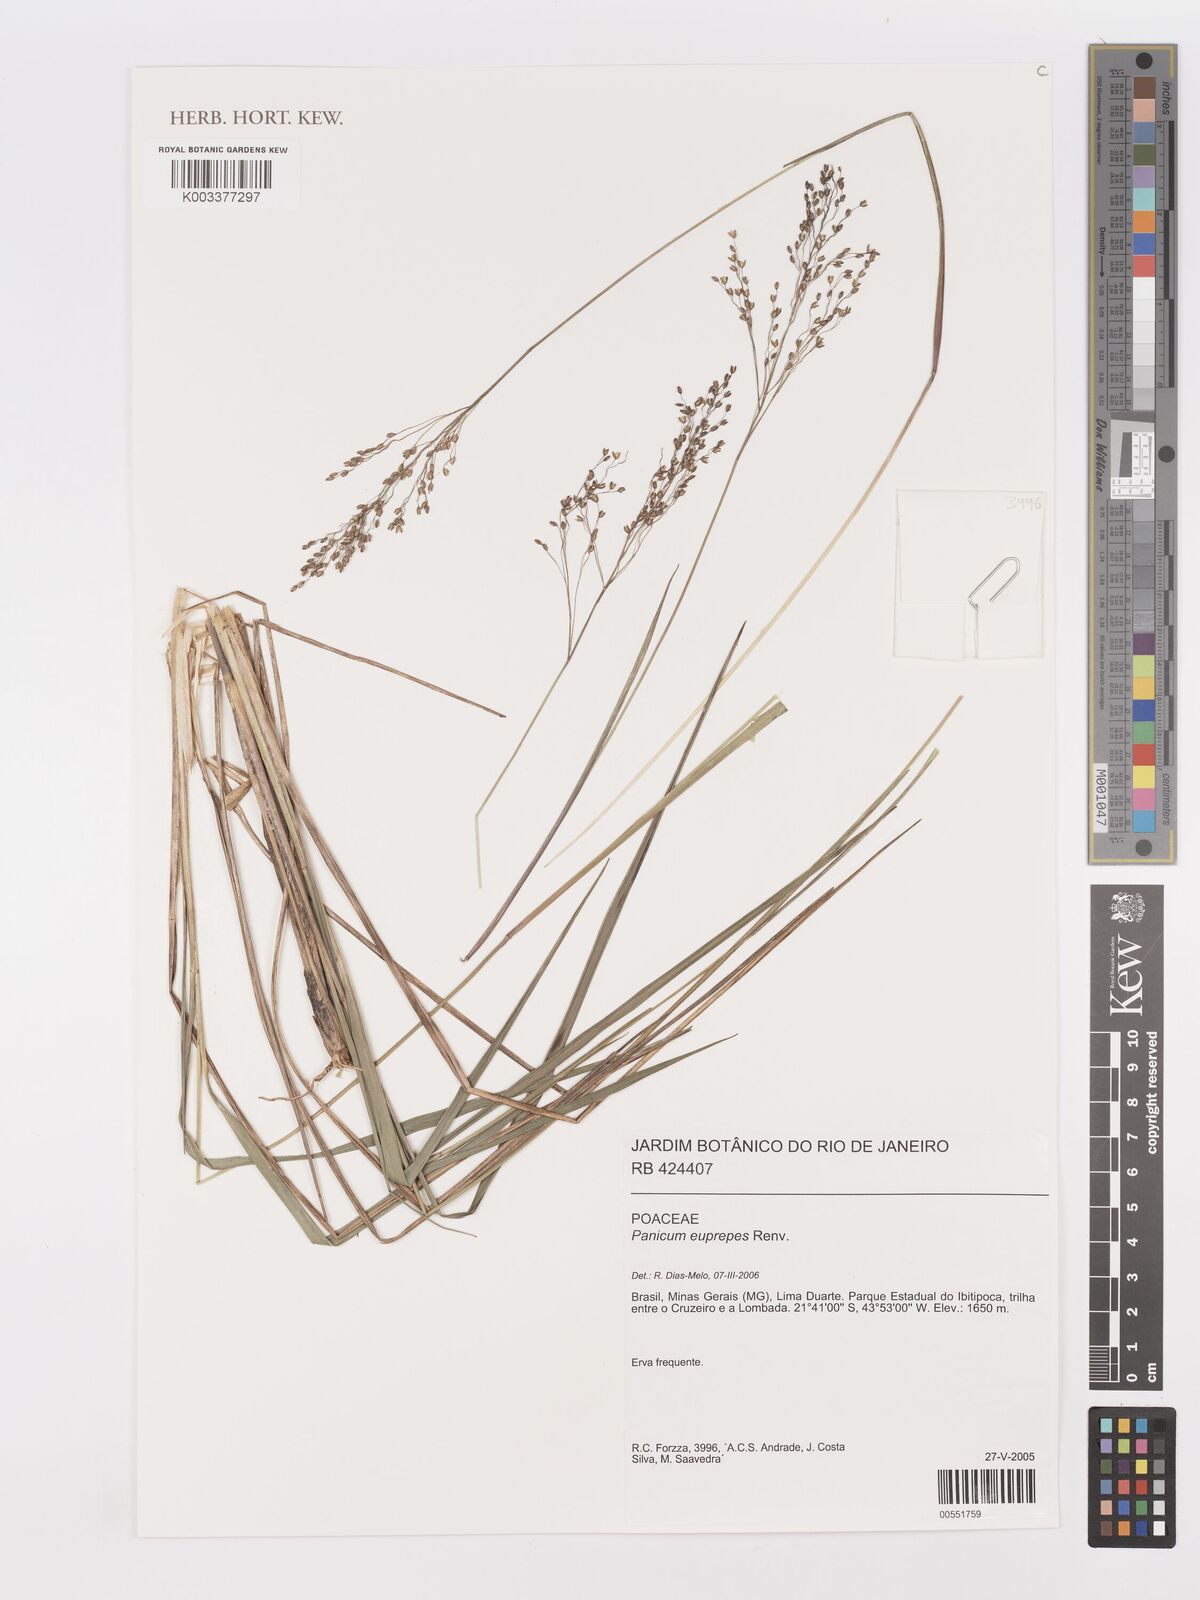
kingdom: Plantae
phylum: Tracheophyta
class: Liliopsida
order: Poales
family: Poaceae
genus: Apochloa
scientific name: Apochloa euprepes
